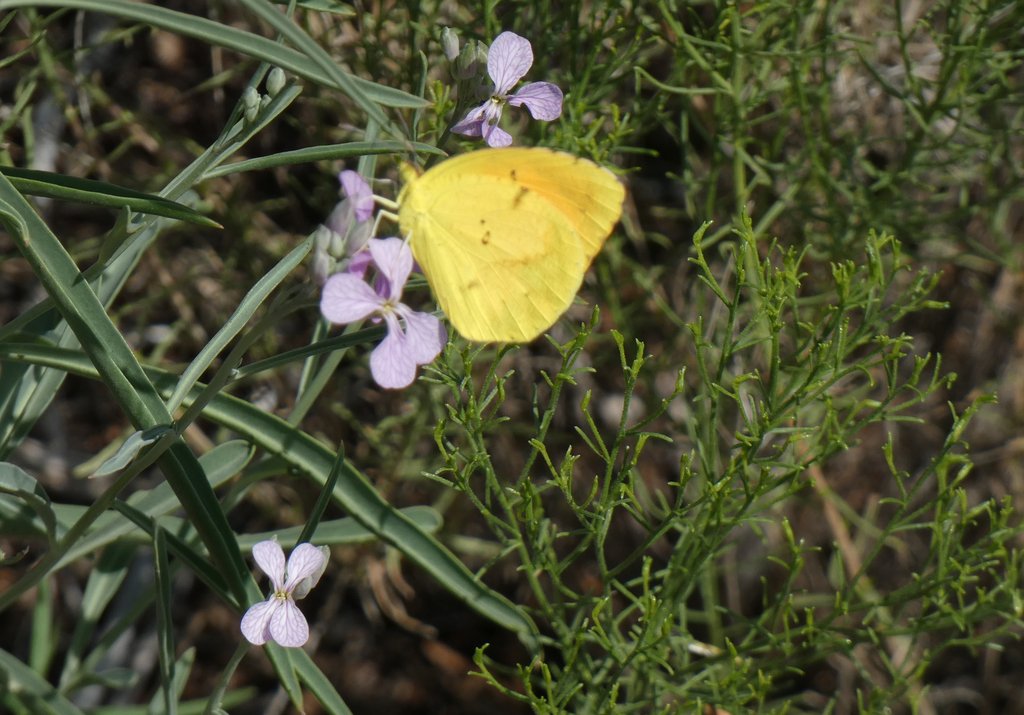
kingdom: Animalia
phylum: Arthropoda
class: Insecta
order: Lepidoptera
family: Pieridae
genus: Abaeis
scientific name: Abaeis nicippe
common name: Sleepy Orange
